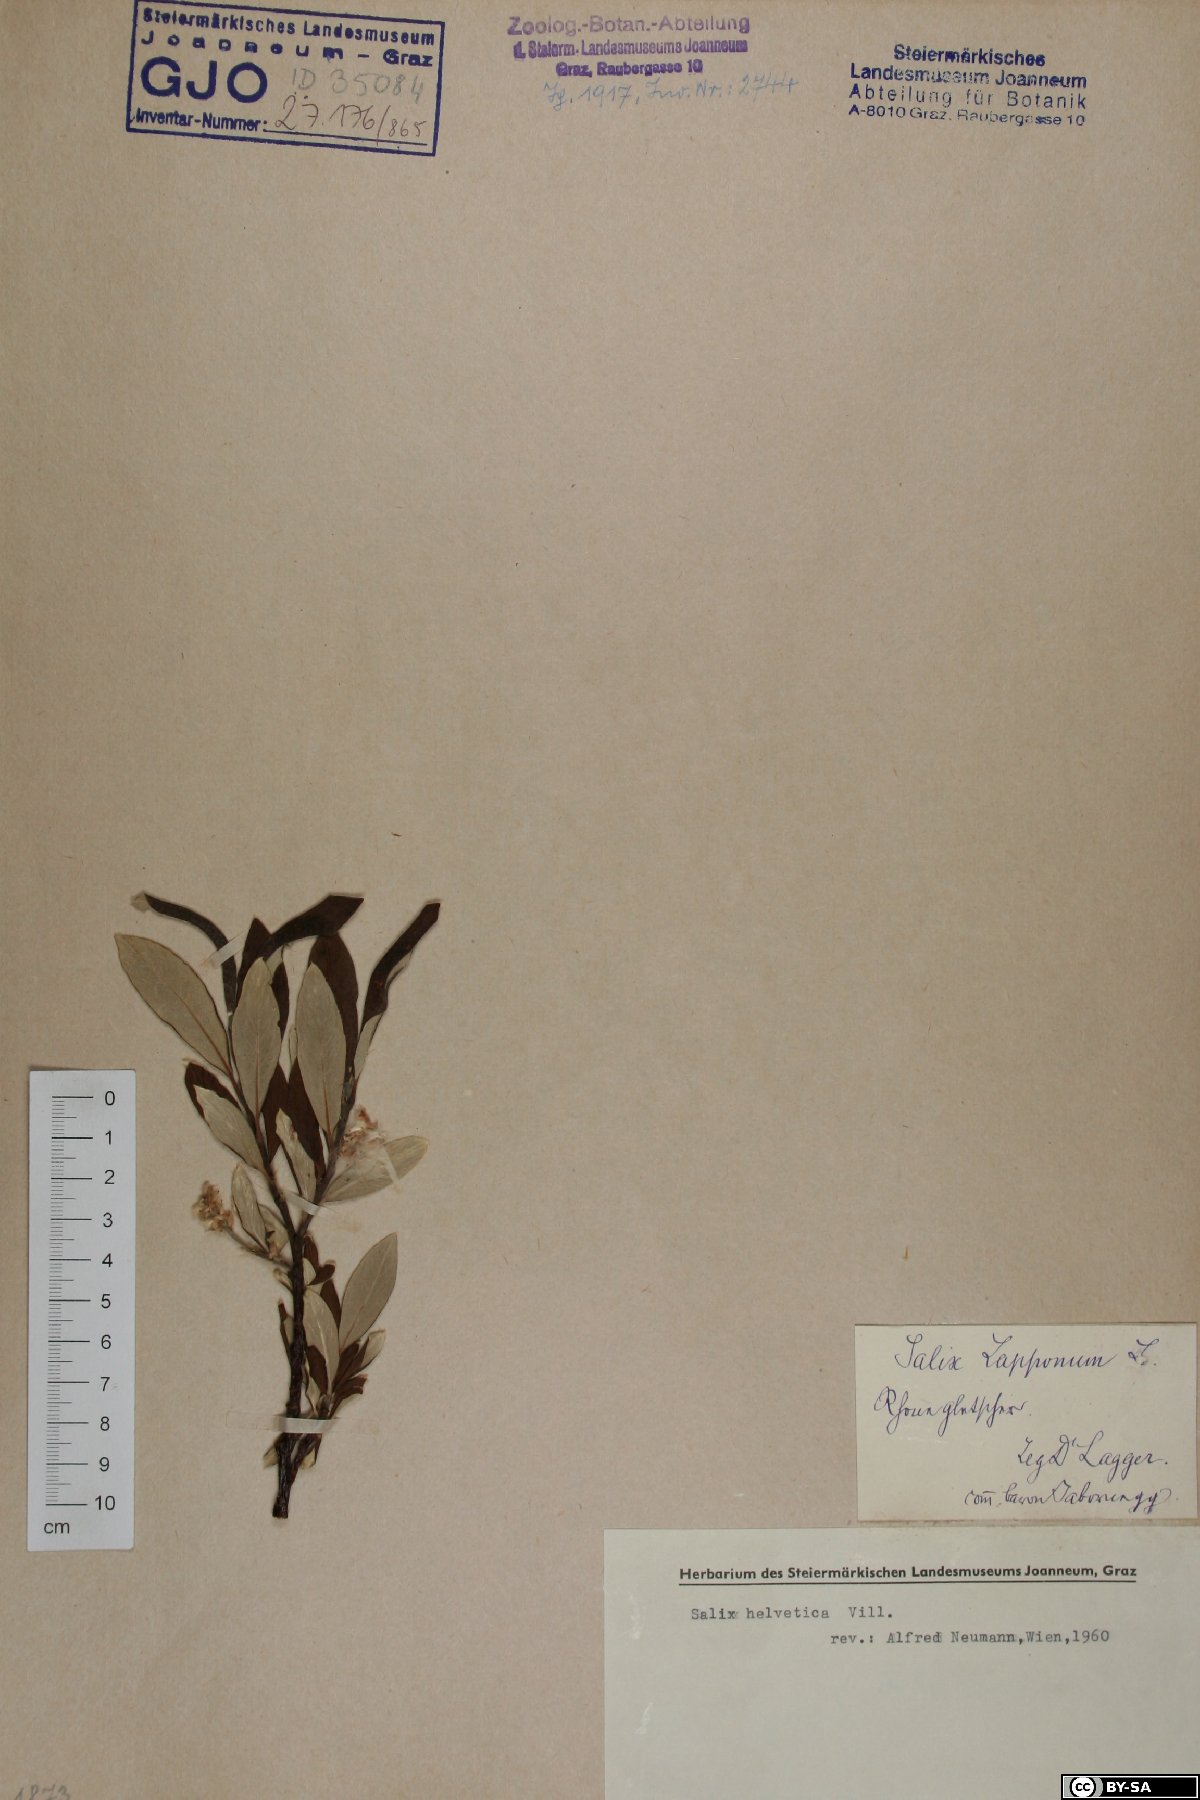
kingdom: Plantae
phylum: Tracheophyta
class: Magnoliopsida
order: Malpighiales
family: Salicaceae
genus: Salix
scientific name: Salix helvetica
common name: Swiss willow
